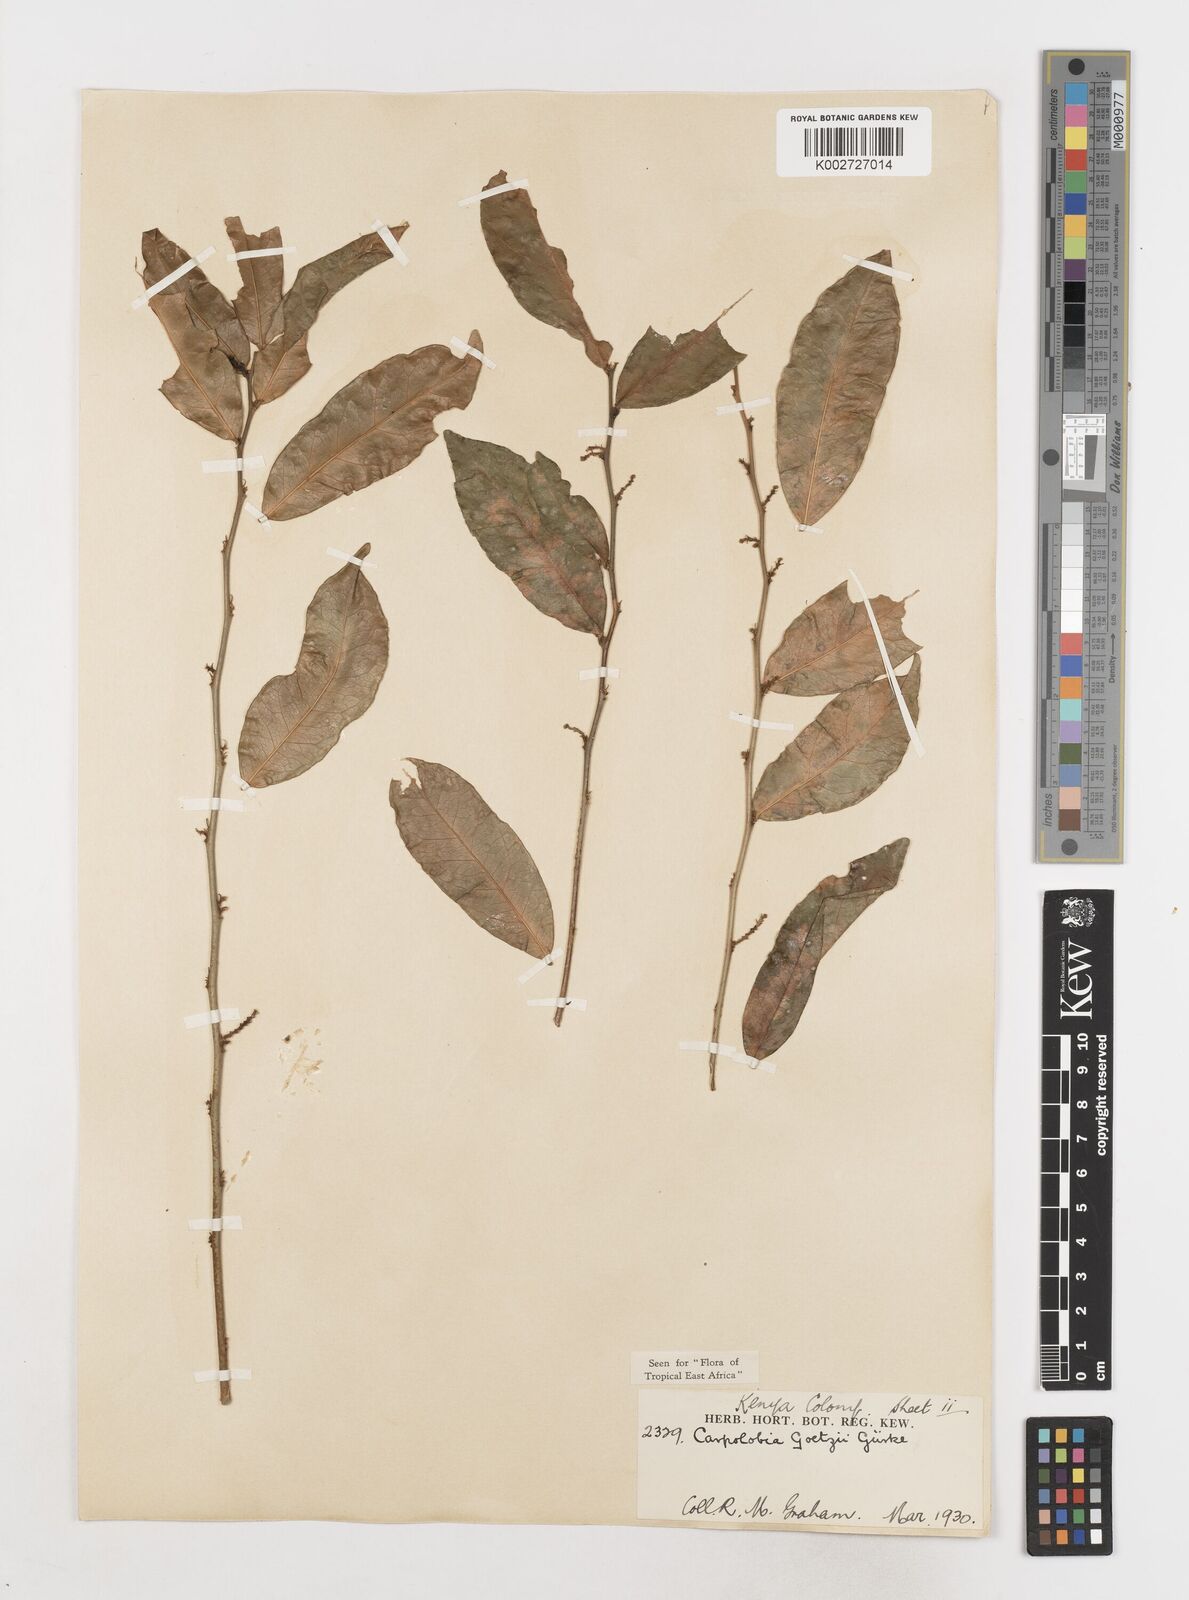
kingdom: Plantae
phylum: Tracheophyta
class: Magnoliopsida
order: Fabales
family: Polygalaceae
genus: Carpolobia
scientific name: Carpolobia goetzei
